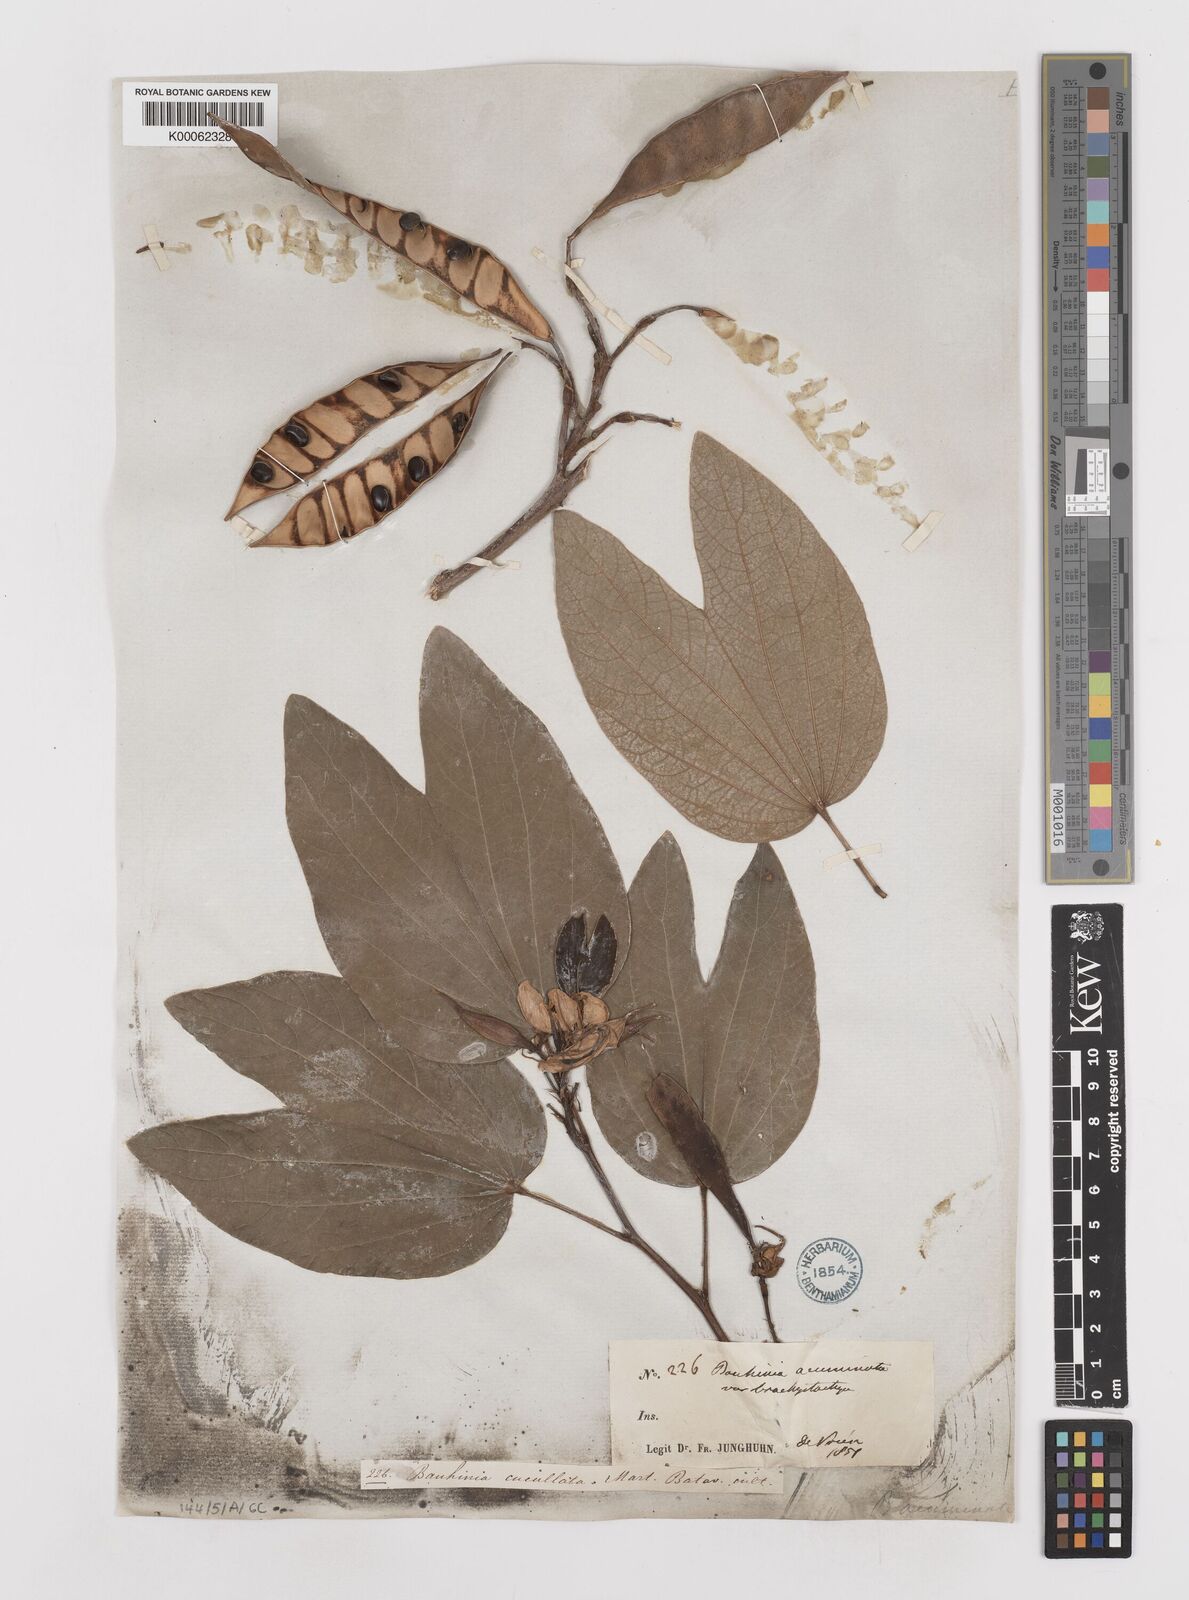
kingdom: Plantae
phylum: Tracheophyta
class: Magnoliopsida
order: Fabales
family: Fabaceae
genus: Bauhinia
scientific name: Bauhinia
